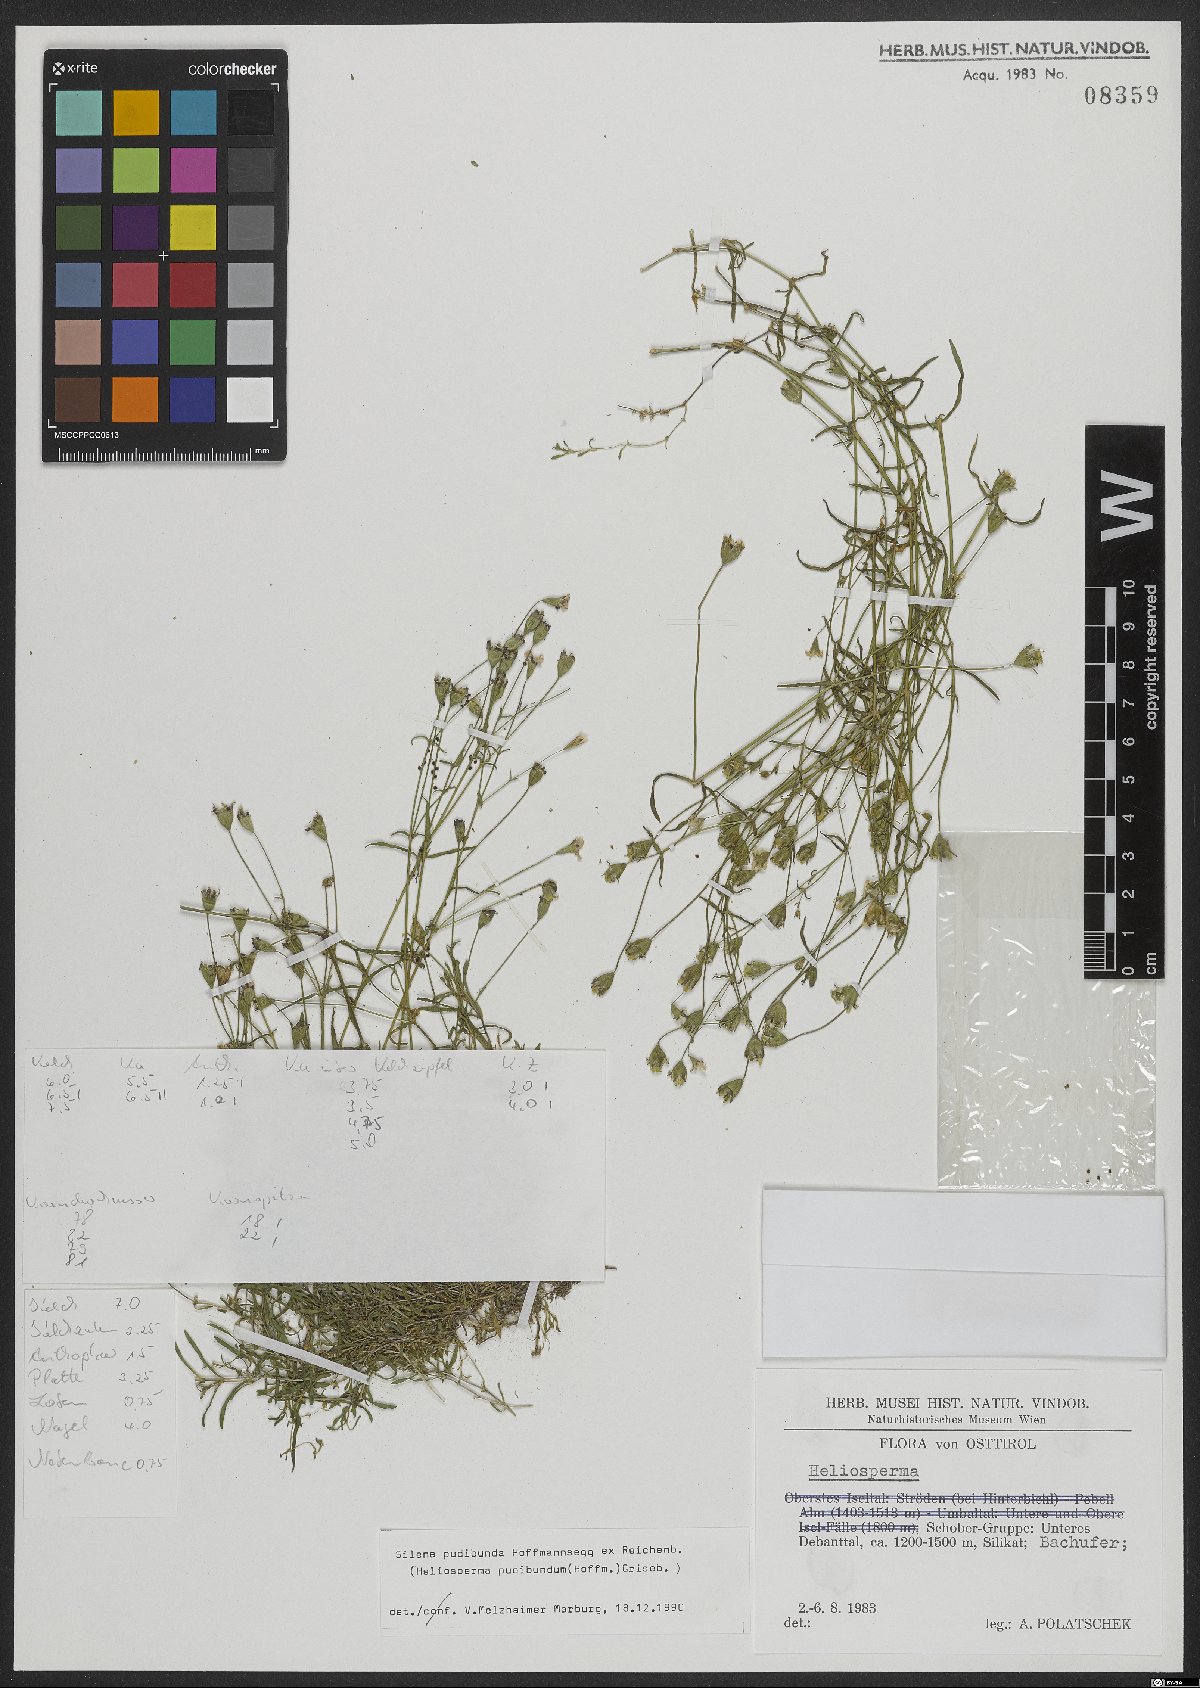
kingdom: Plantae
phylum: Tracheophyta
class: Magnoliopsida
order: Caryophyllales
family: Caryophyllaceae
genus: Heliosperma
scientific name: Heliosperma pudibundum
